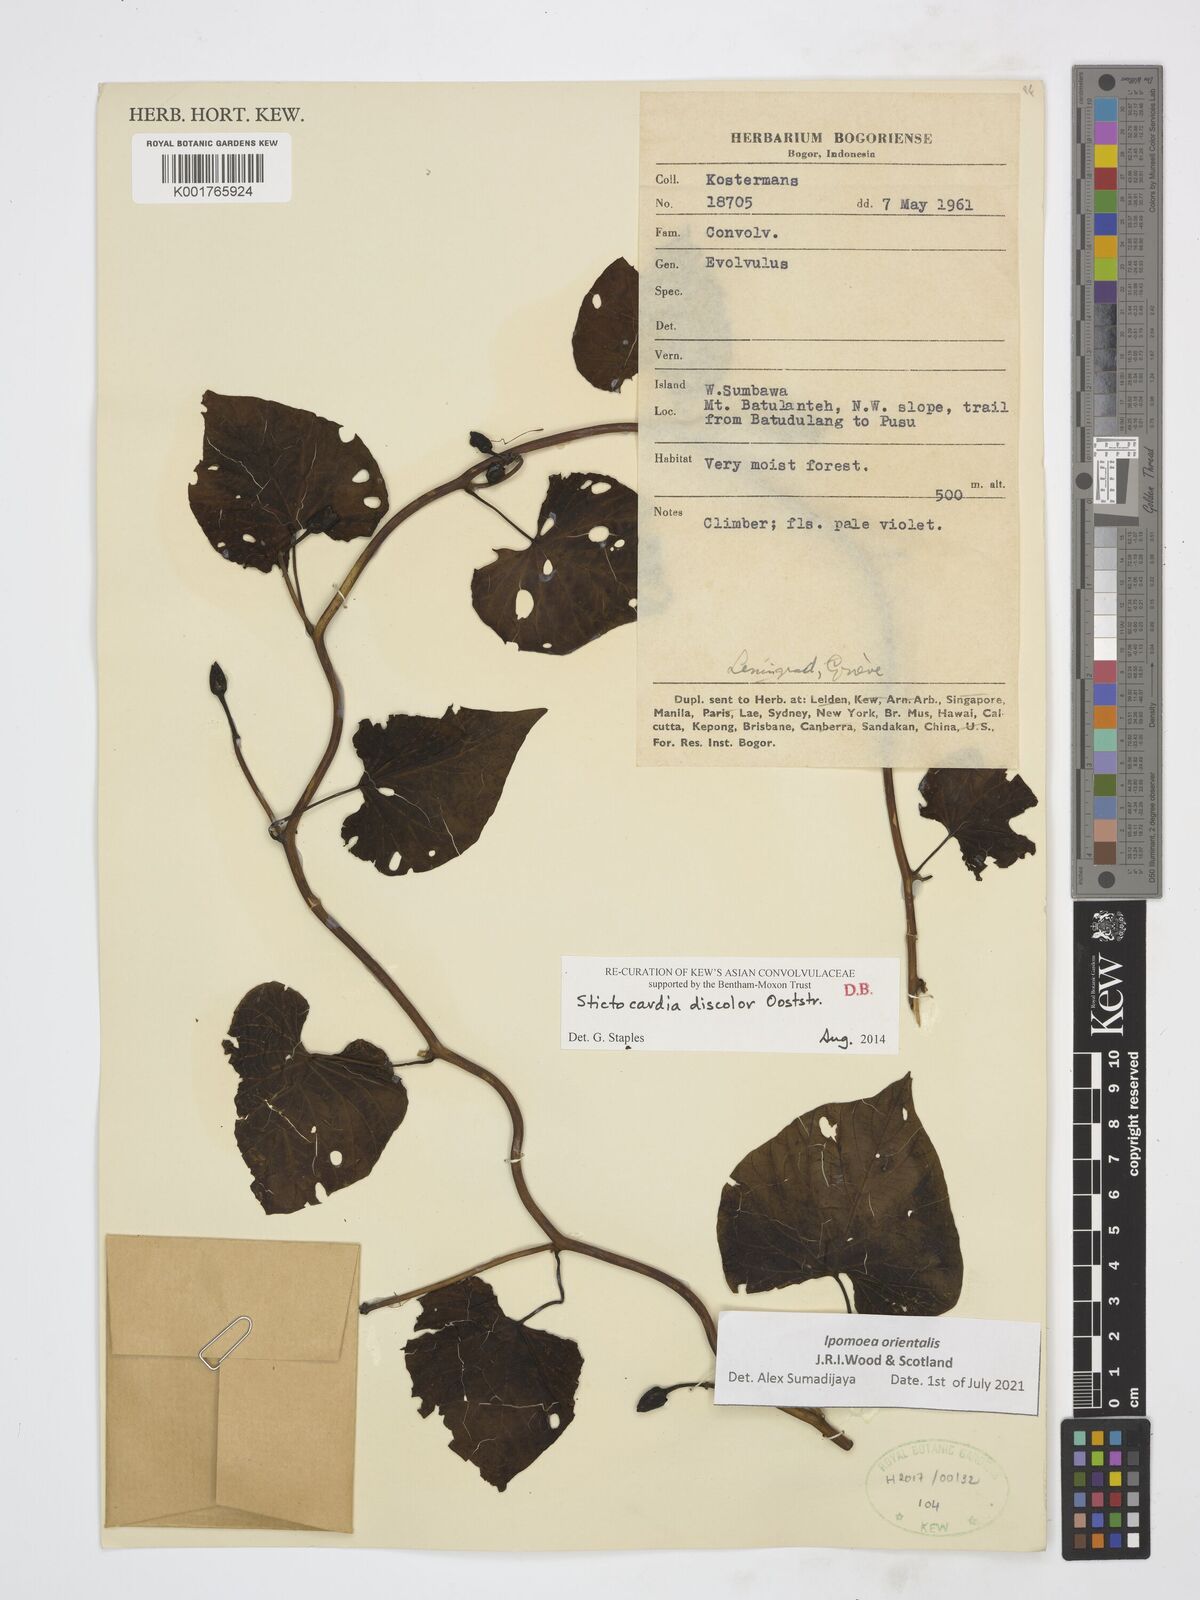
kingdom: Plantae
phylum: Tracheophyta
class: Magnoliopsida
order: Solanales
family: Convolvulaceae
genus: Stictocardia
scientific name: Stictocardia discolor
